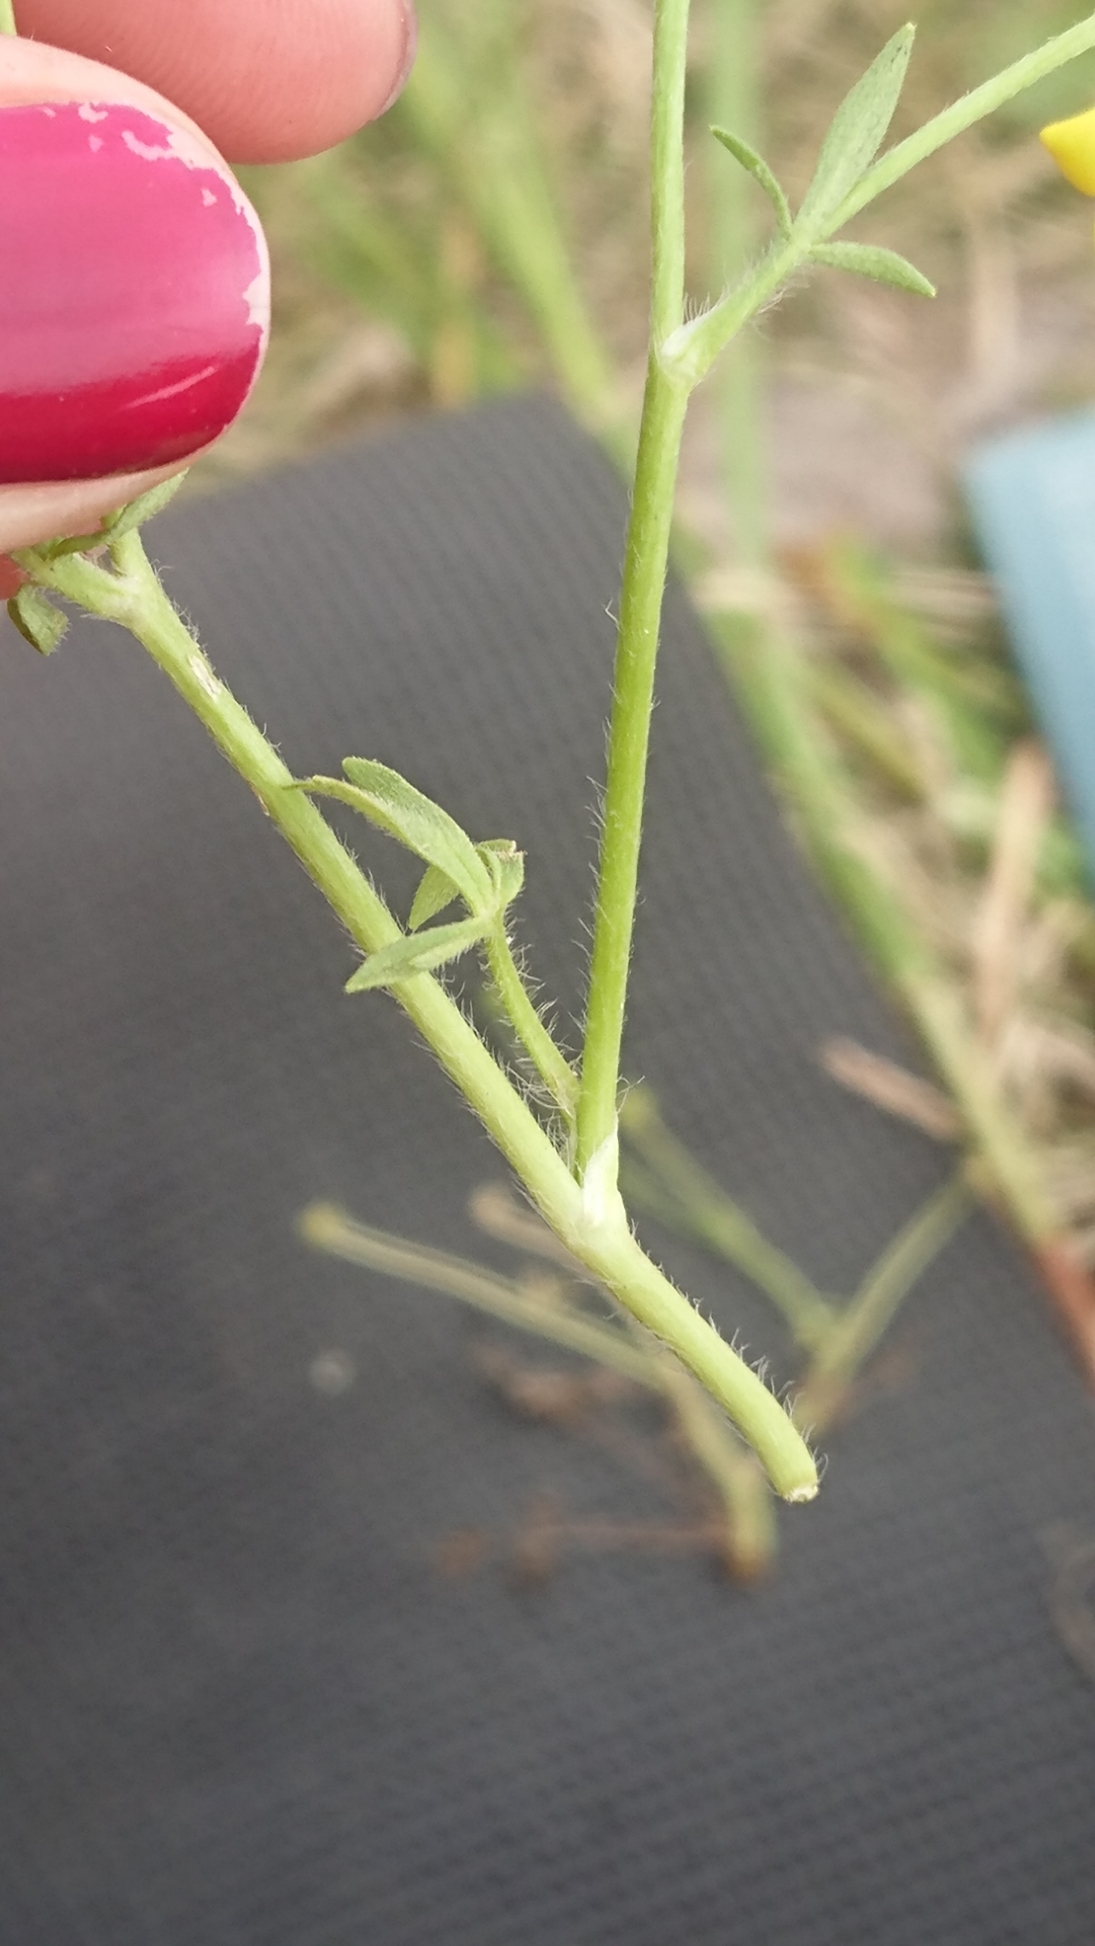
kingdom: Plantae
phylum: Tracheophyta
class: Magnoliopsida
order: Ranunculales
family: Ranunculaceae
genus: Ranunculus
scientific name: Ranunculus sardous
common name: Stivhåret ranunkel
